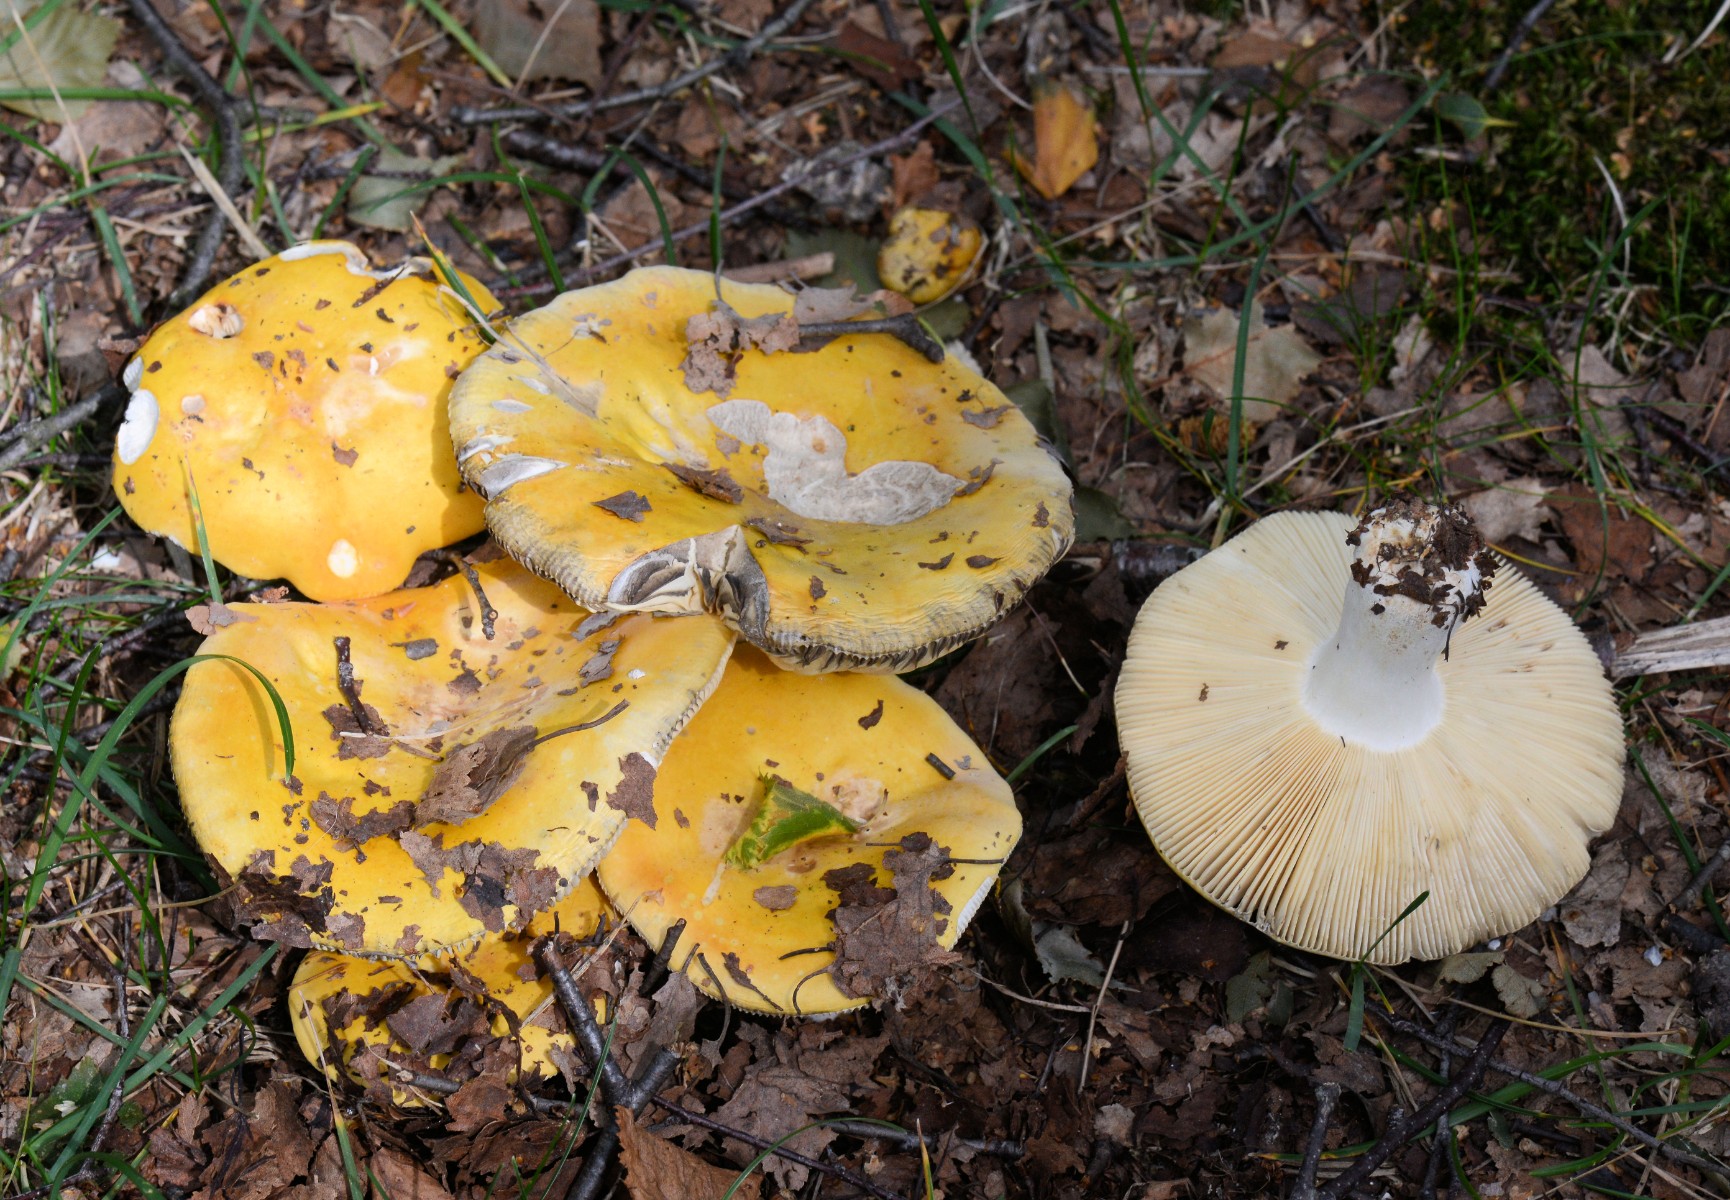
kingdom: Fungi
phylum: Basidiomycota
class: Agaricomycetes
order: Russulales
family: Russulaceae
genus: Russula
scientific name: Russula claroflava
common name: birke-skørhat
